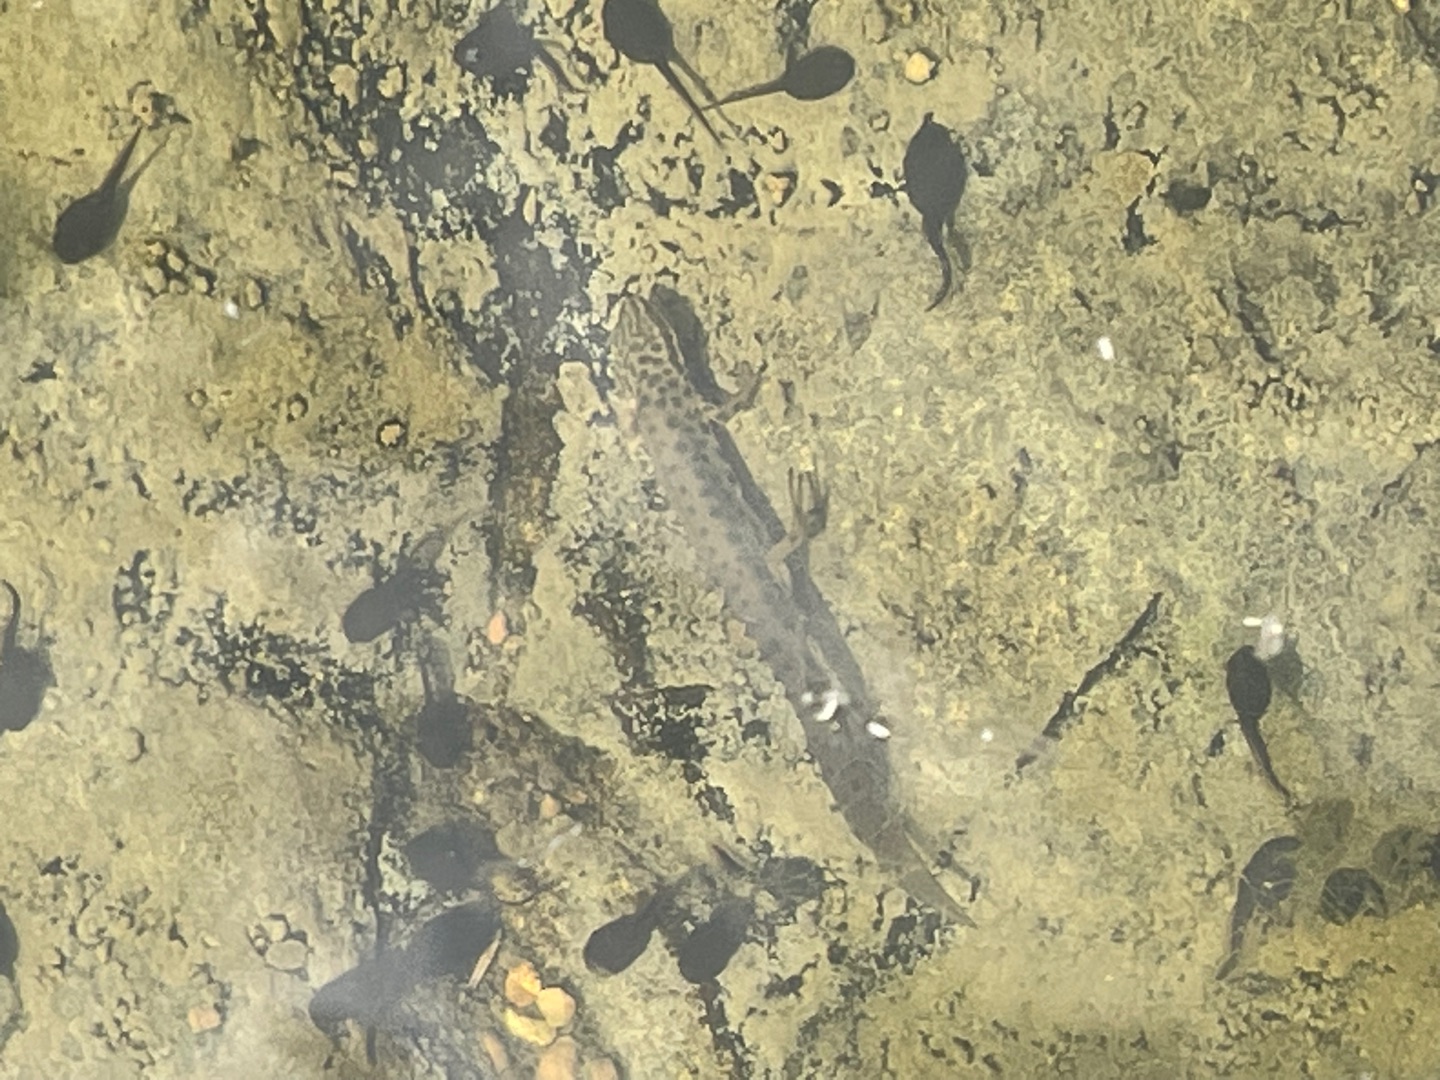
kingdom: Animalia
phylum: Chordata
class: Amphibia
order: Caudata
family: Salamandridae
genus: Lissotriton
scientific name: Lissotriton vulgaris
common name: Lille vandsalamander
